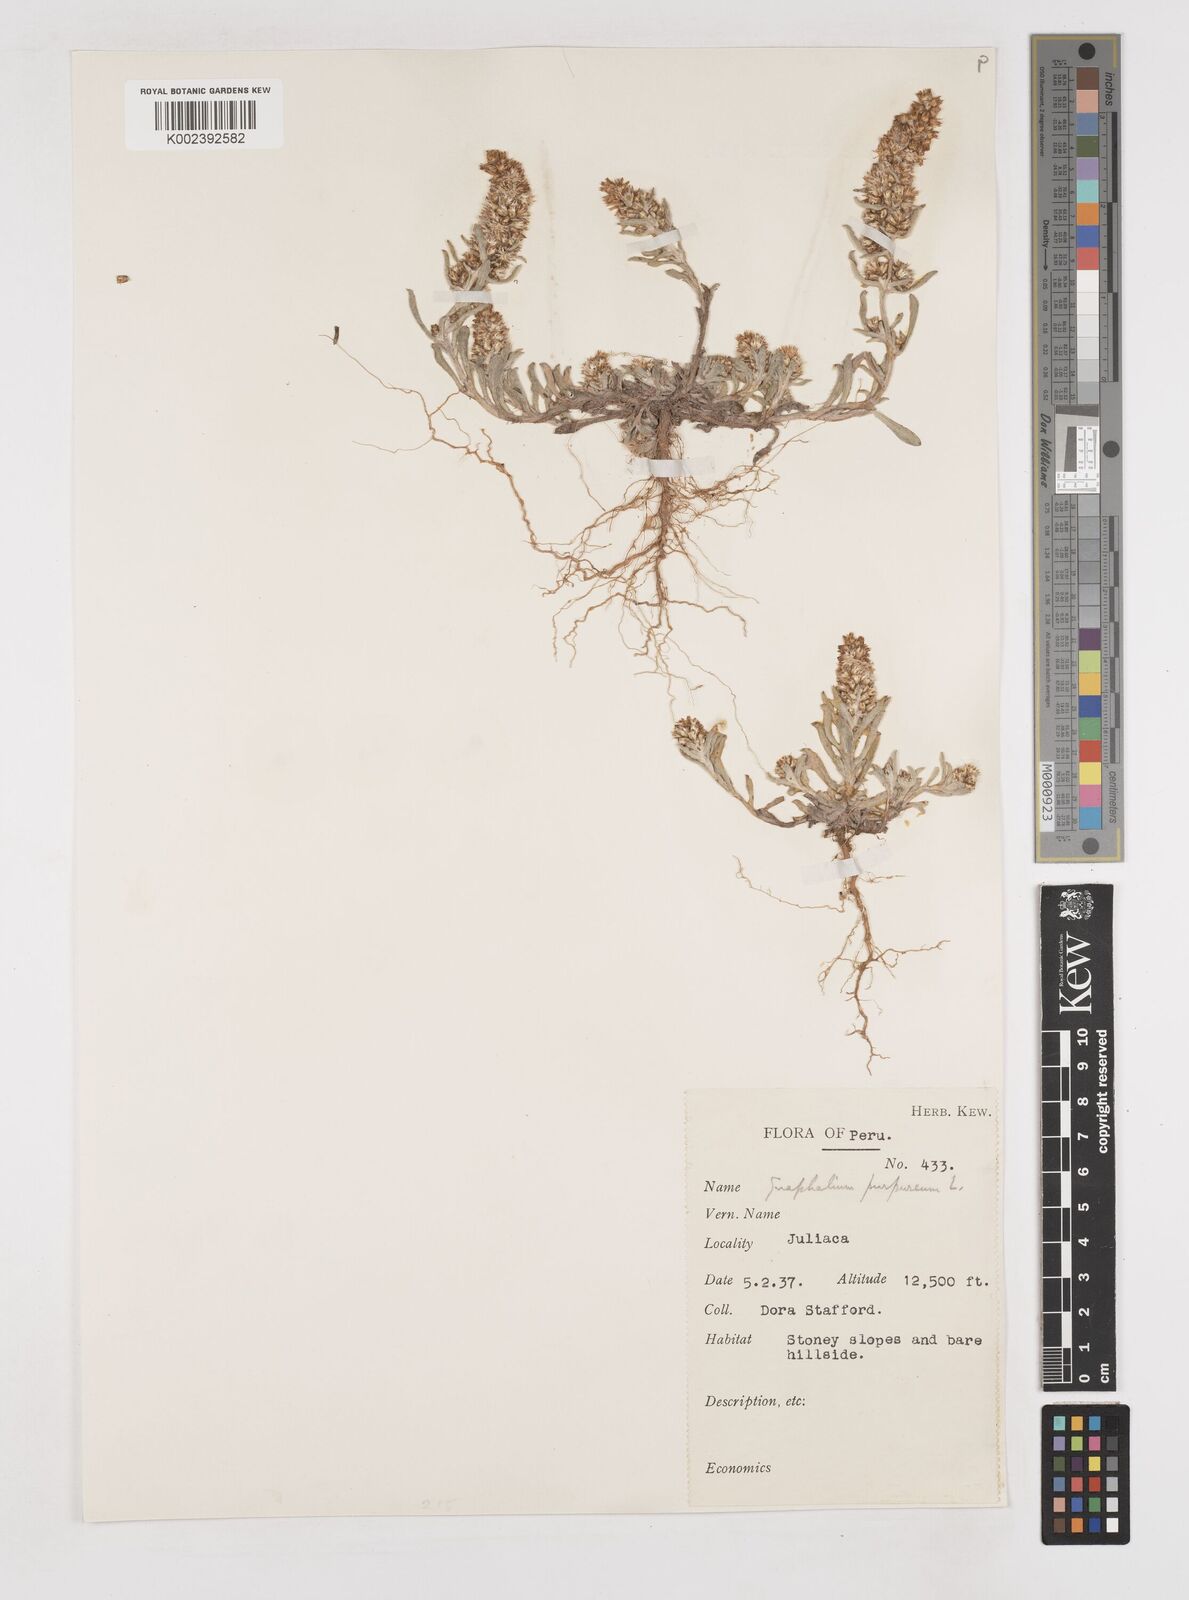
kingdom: Plantae
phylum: Tracheophyta
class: Magnoliopsida
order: Asterales
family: Asteraceae
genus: Pseudognaphalium
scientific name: Pseudognaphalium purpurascens
